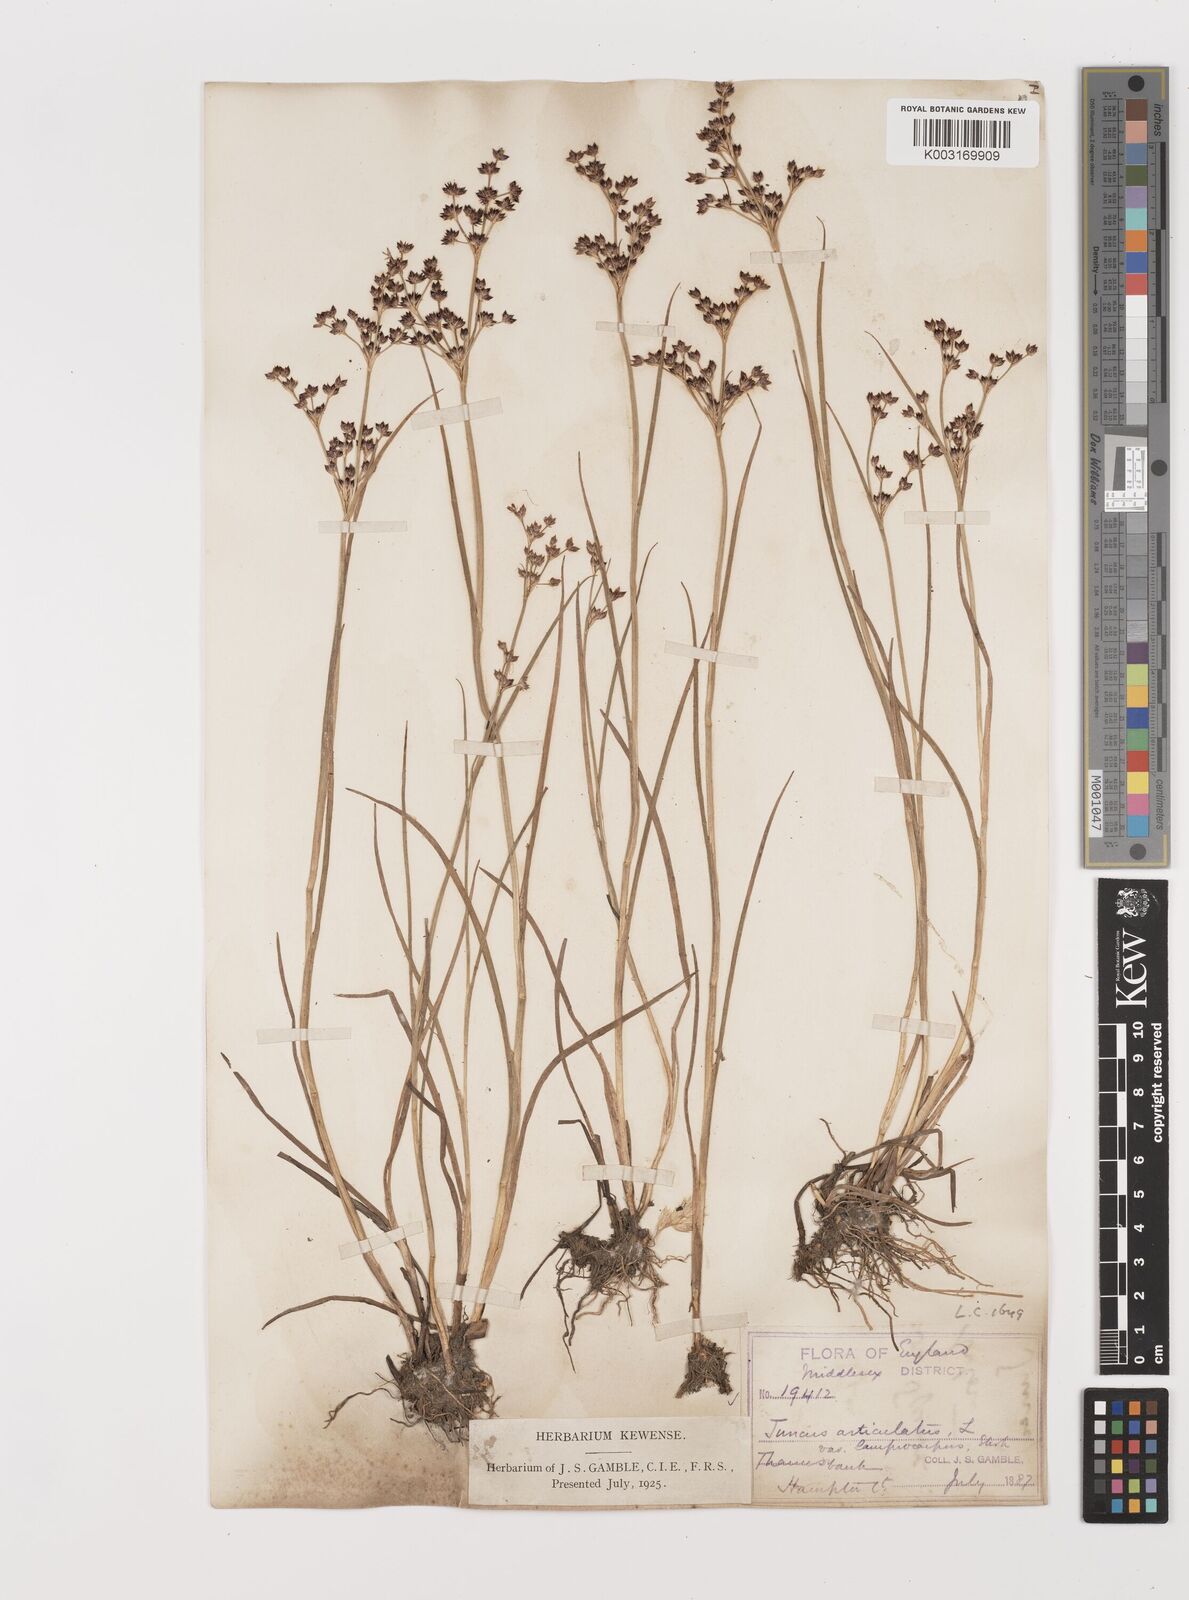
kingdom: Plantae
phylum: Tracheophyta
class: Liliopsida
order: Poales
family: Juncaceae
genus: Juncus
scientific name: Juncus articulatus
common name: Jointed rush
